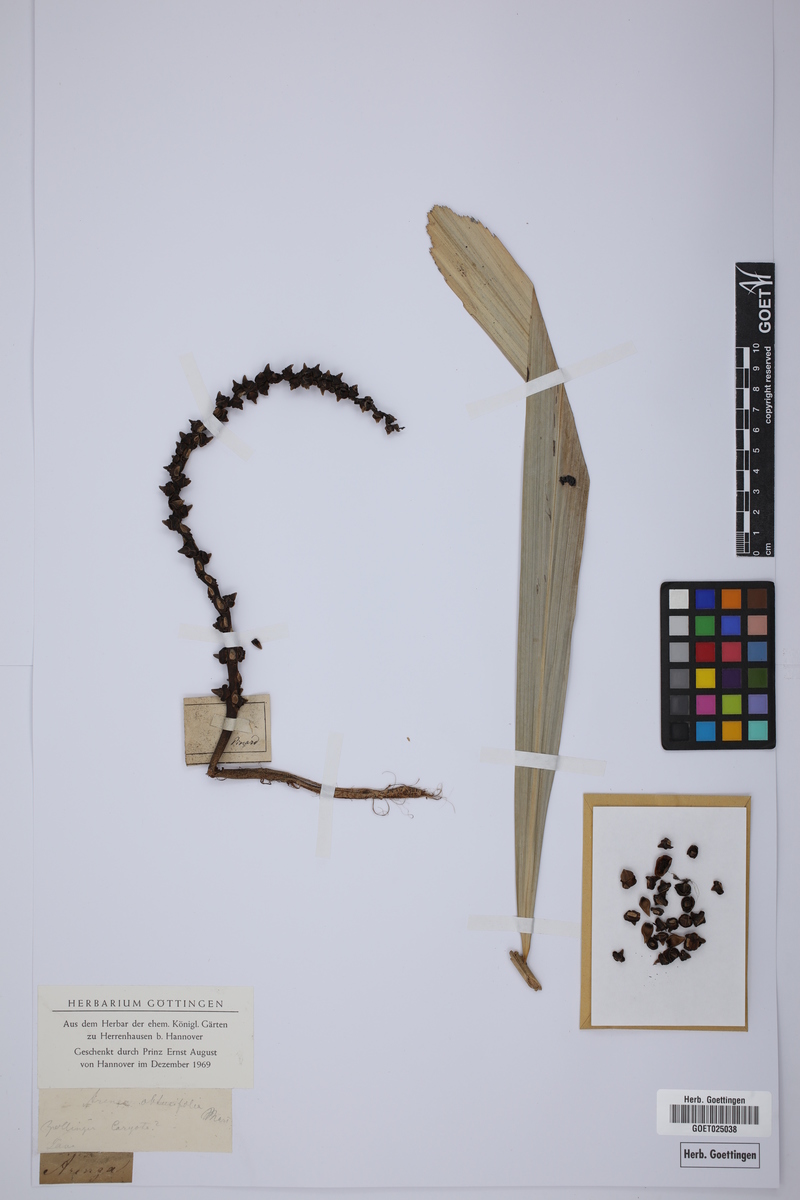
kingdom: Plantae
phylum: Tracheophyta
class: Liliopsida
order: Arecales
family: Arecaceae
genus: Arenga
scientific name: Arenga obtusifolia
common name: Lang kap
